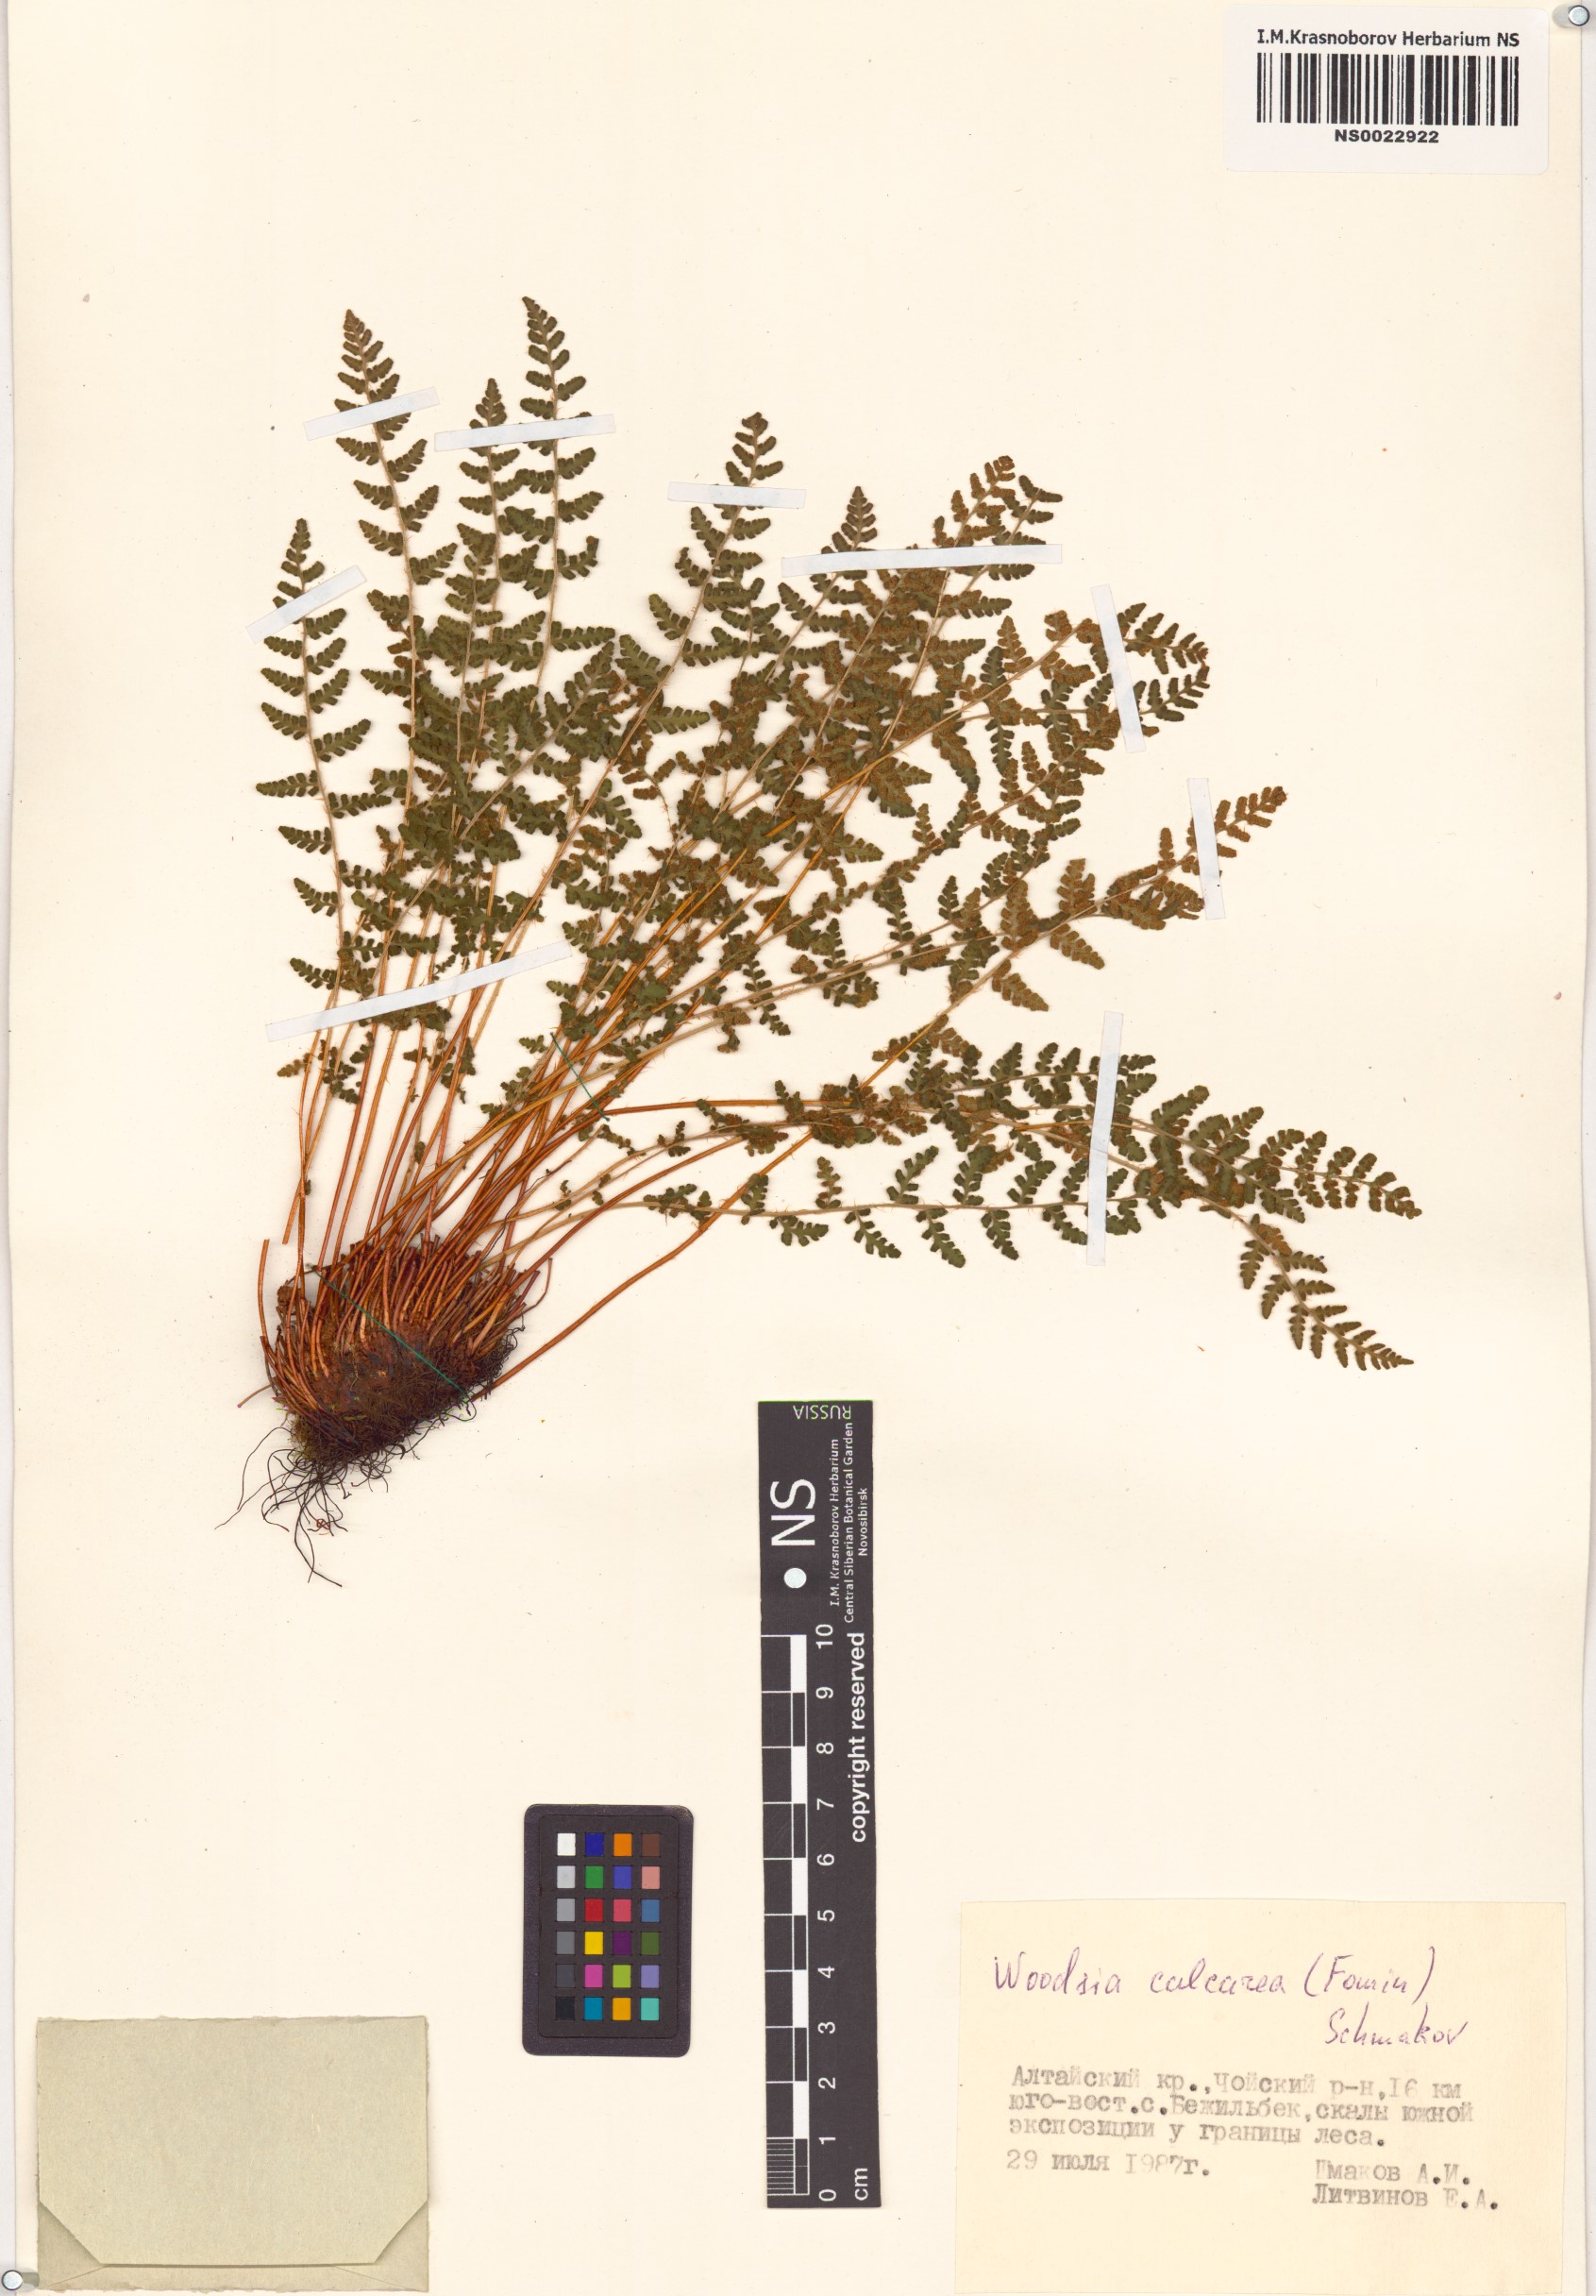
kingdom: Plantae
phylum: Tracheophyta
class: Polypodiopsida
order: Polypodiales
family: Woodsiaceae
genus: Woodsia
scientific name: Woodsia calcarea
